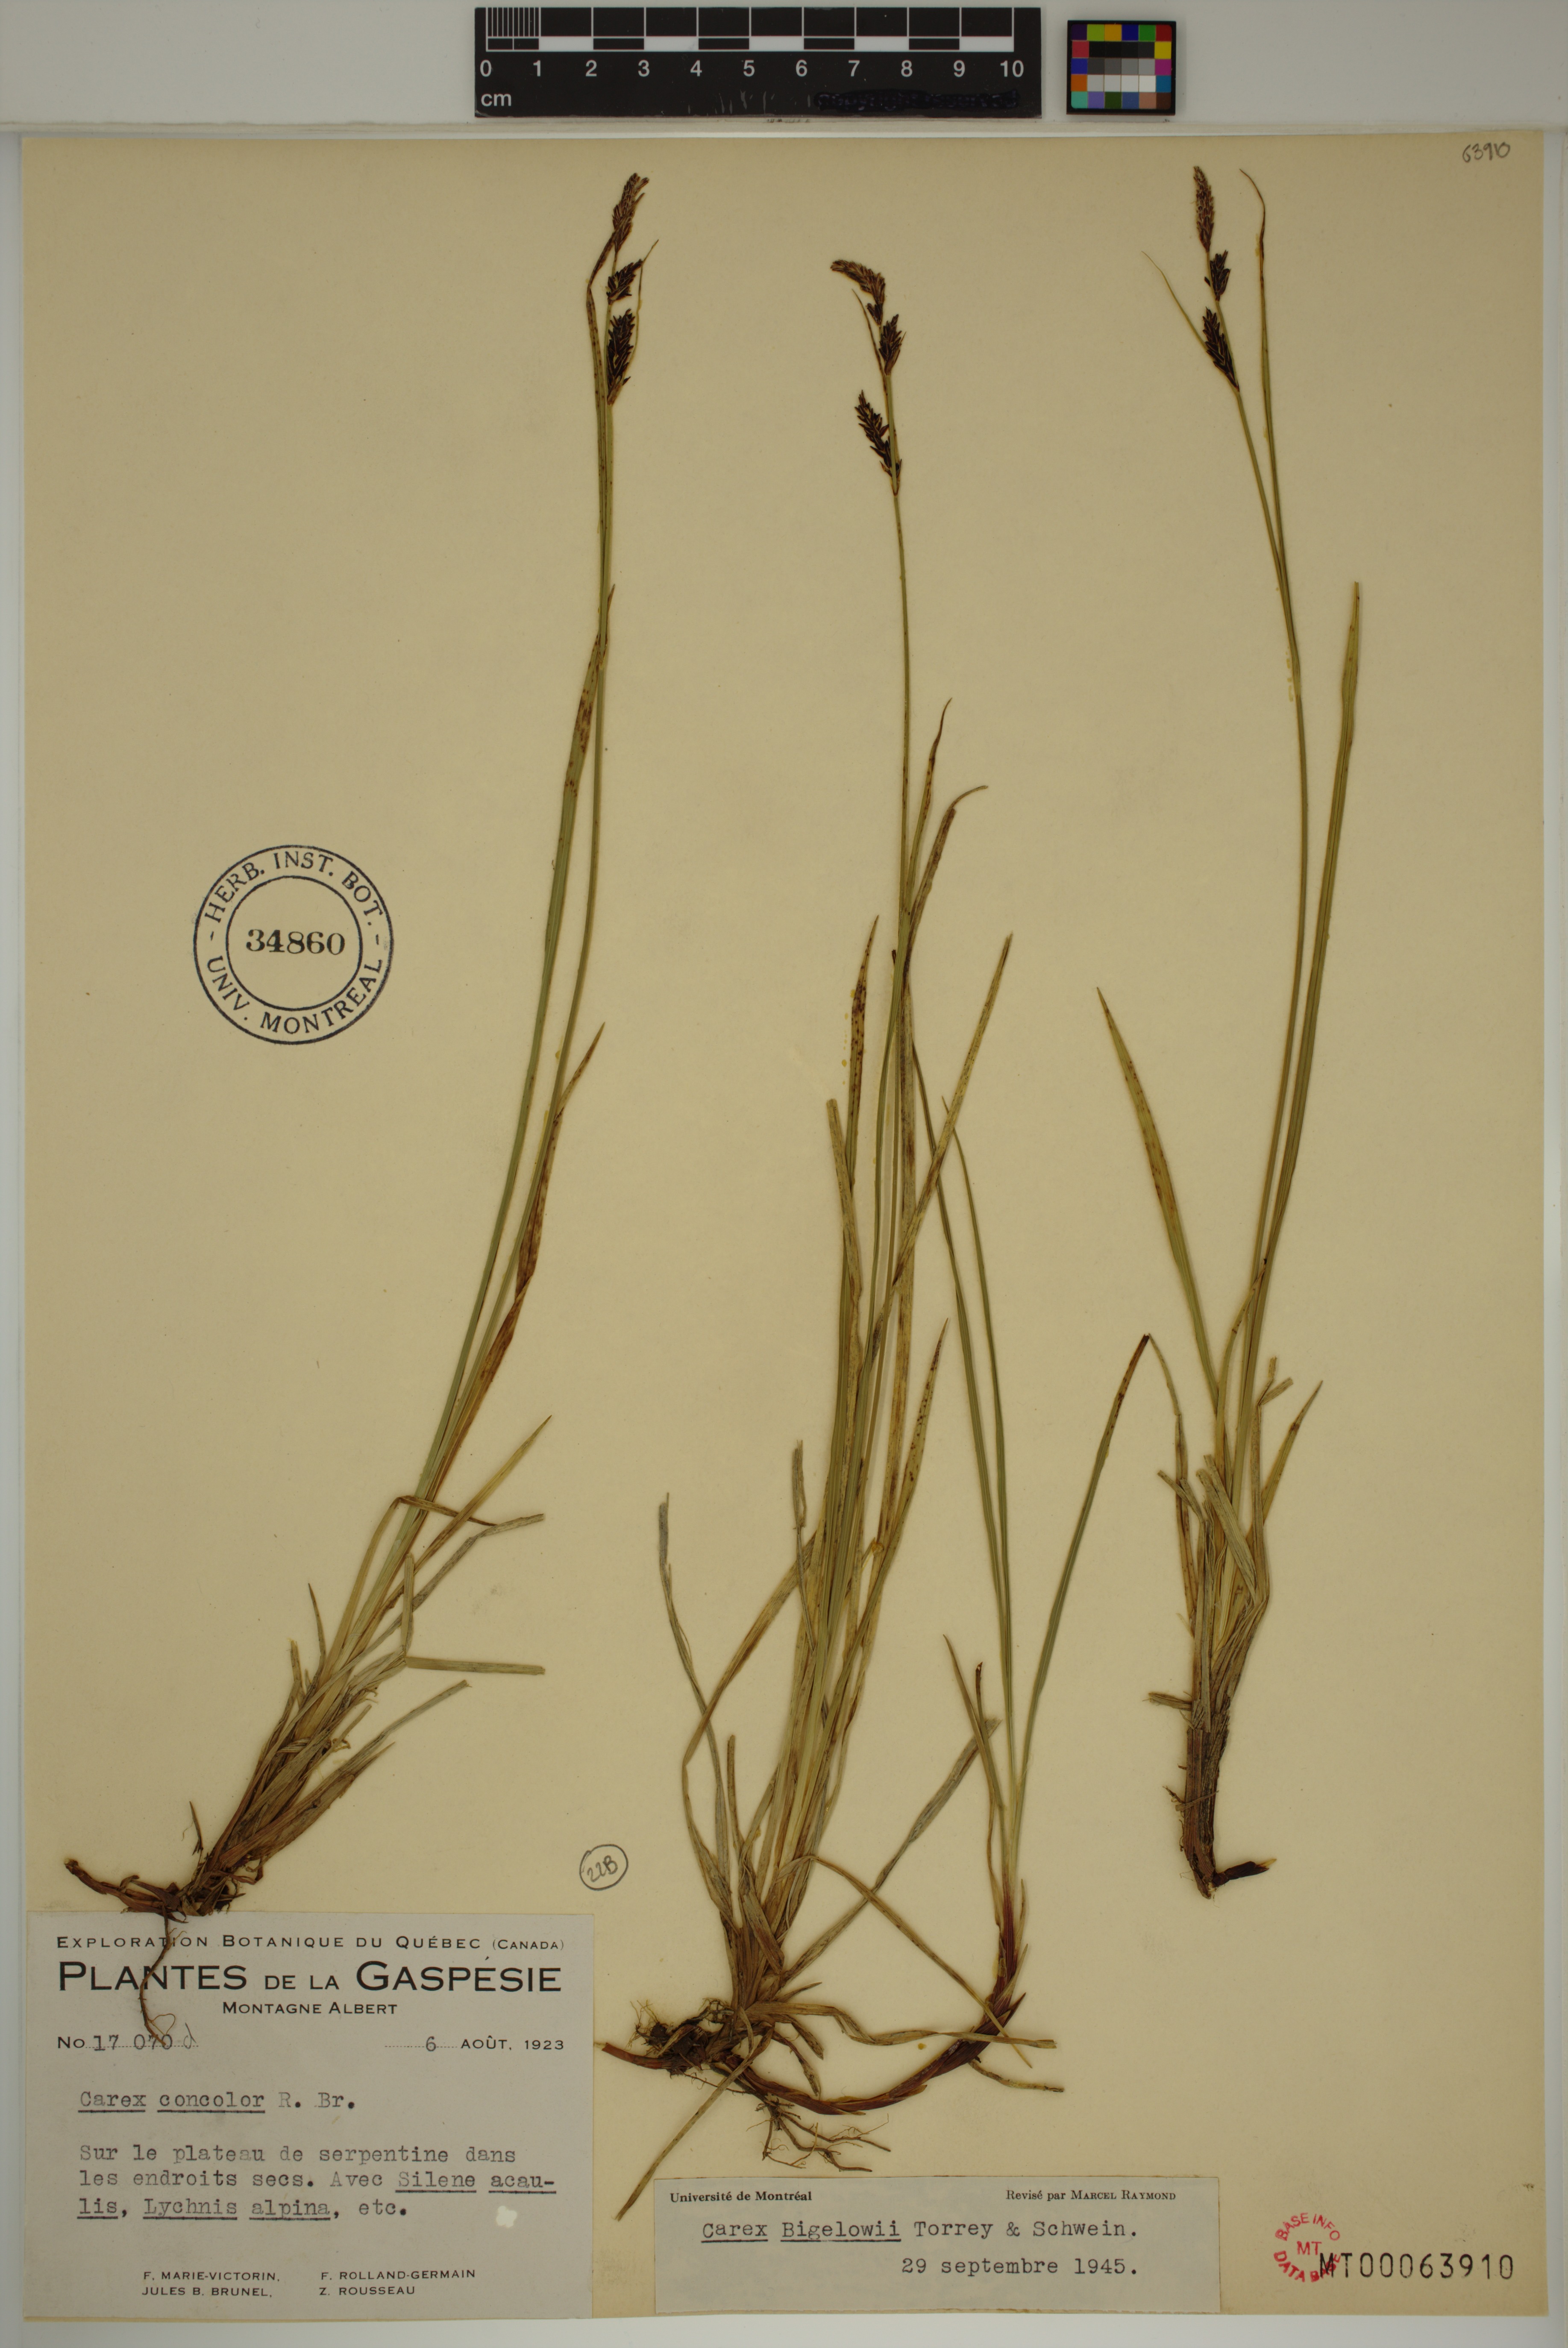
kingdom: Plantae
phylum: Tracheophyta
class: Liliopsida
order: Poales
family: Cyperaceae
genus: Carex
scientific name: Carex bigelowii
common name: Stiff sedge
